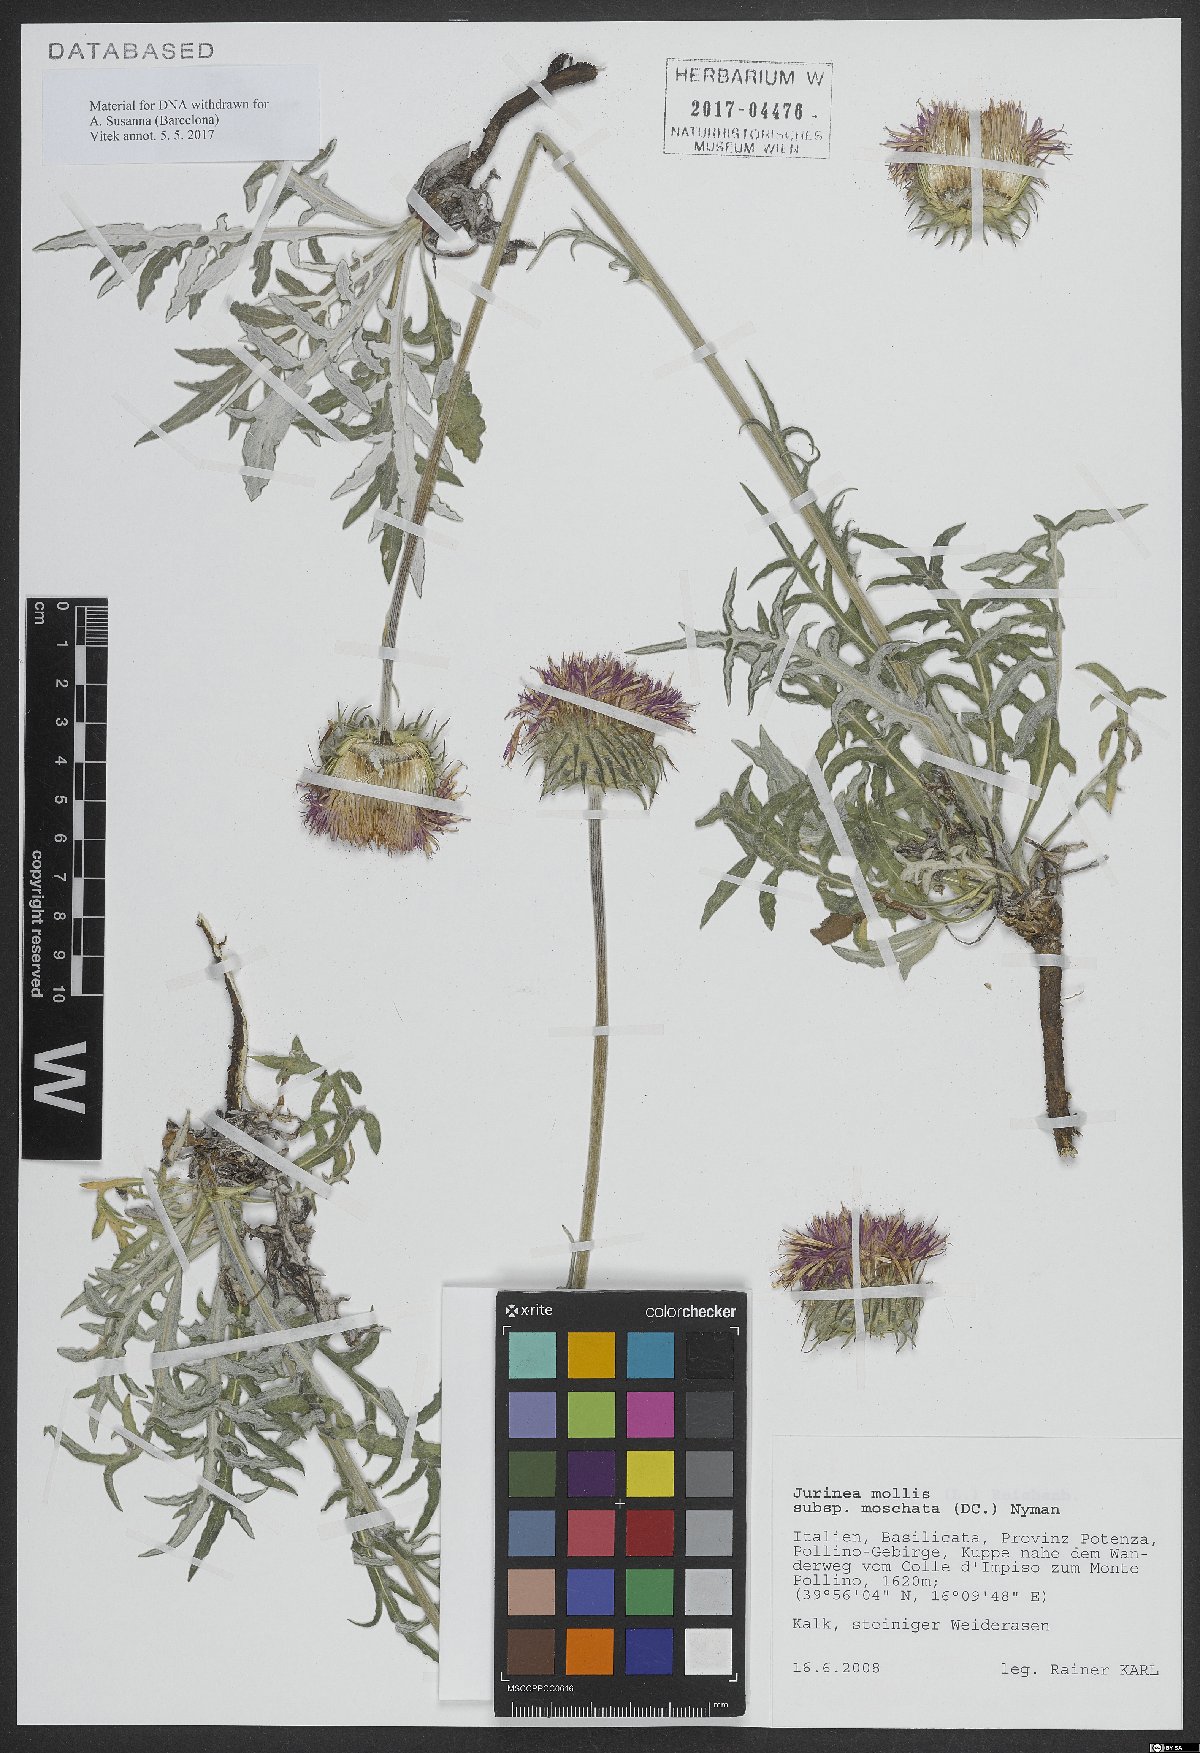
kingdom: Plantae
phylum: Tracheophyta
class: Magnoliopsida
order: Asterales
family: Asteraceae
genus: Jurinea
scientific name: Jurinea mollis
